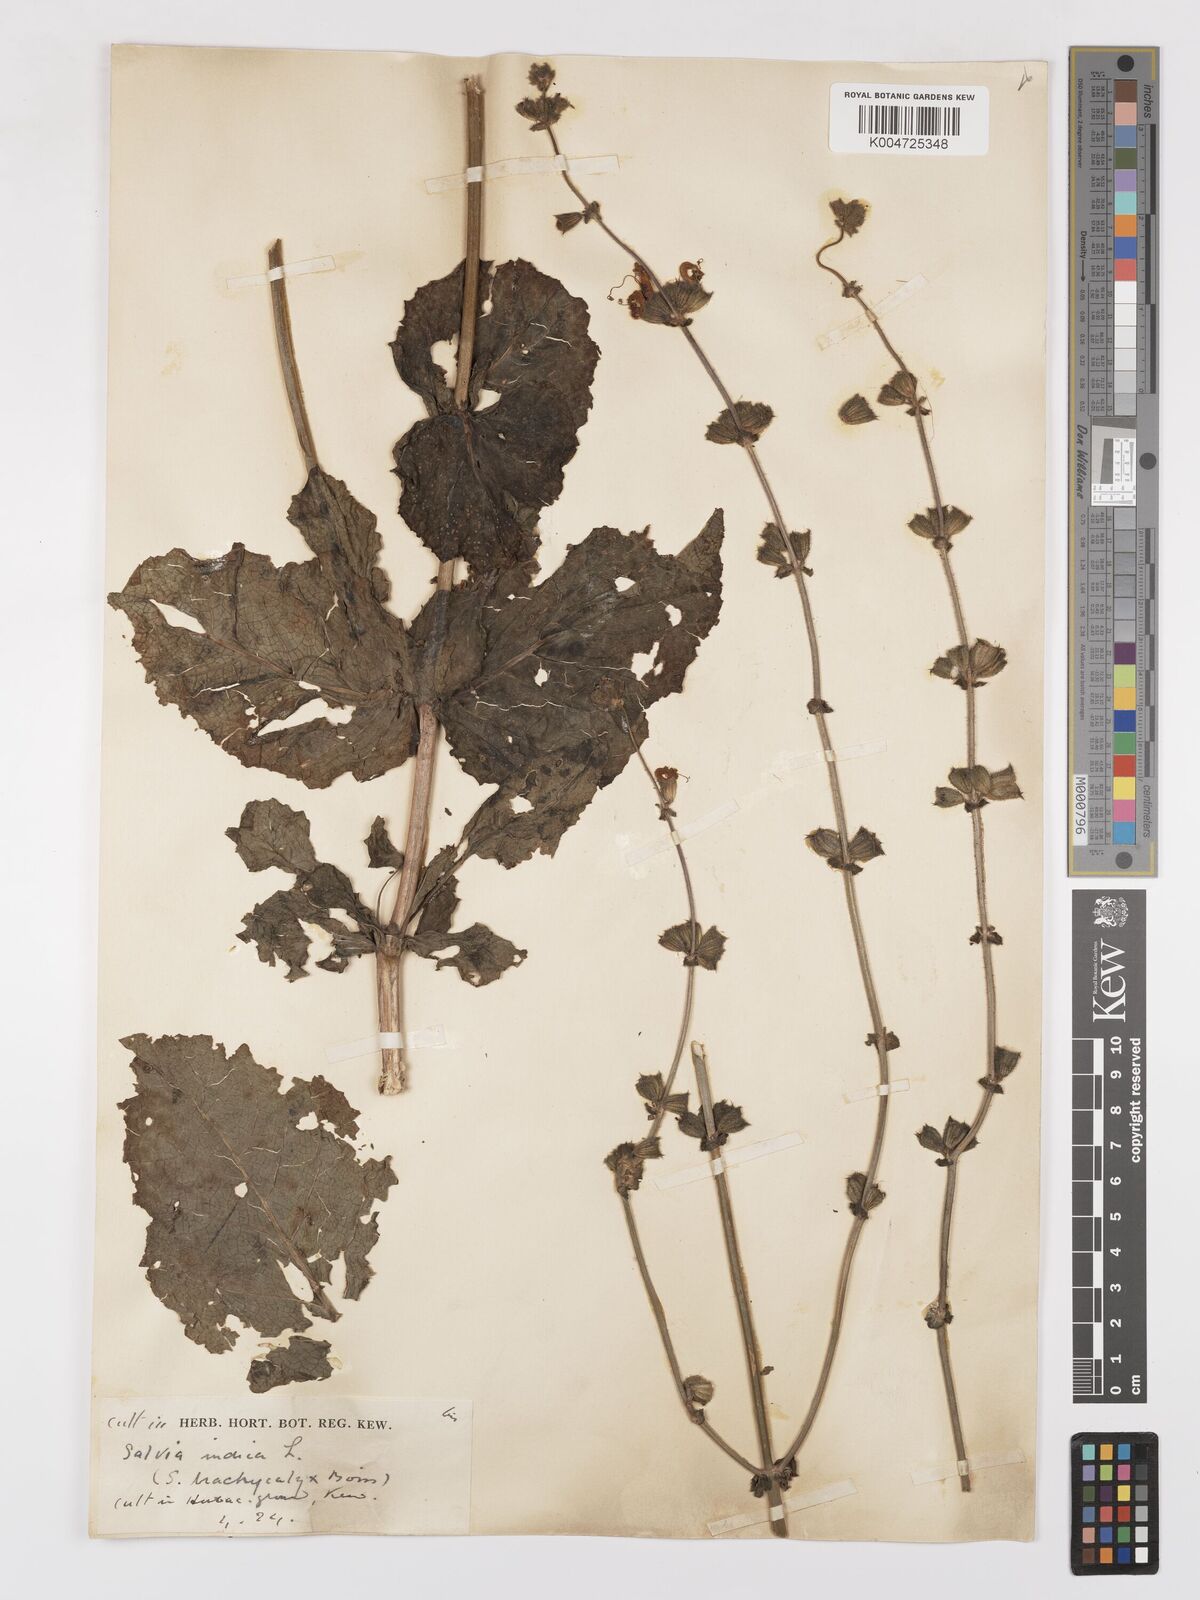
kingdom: Plantae
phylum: Tracheophyta
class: Magnoliopsida
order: Lamiales
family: Lamiaceae
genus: Salvia
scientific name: Salvia indica
